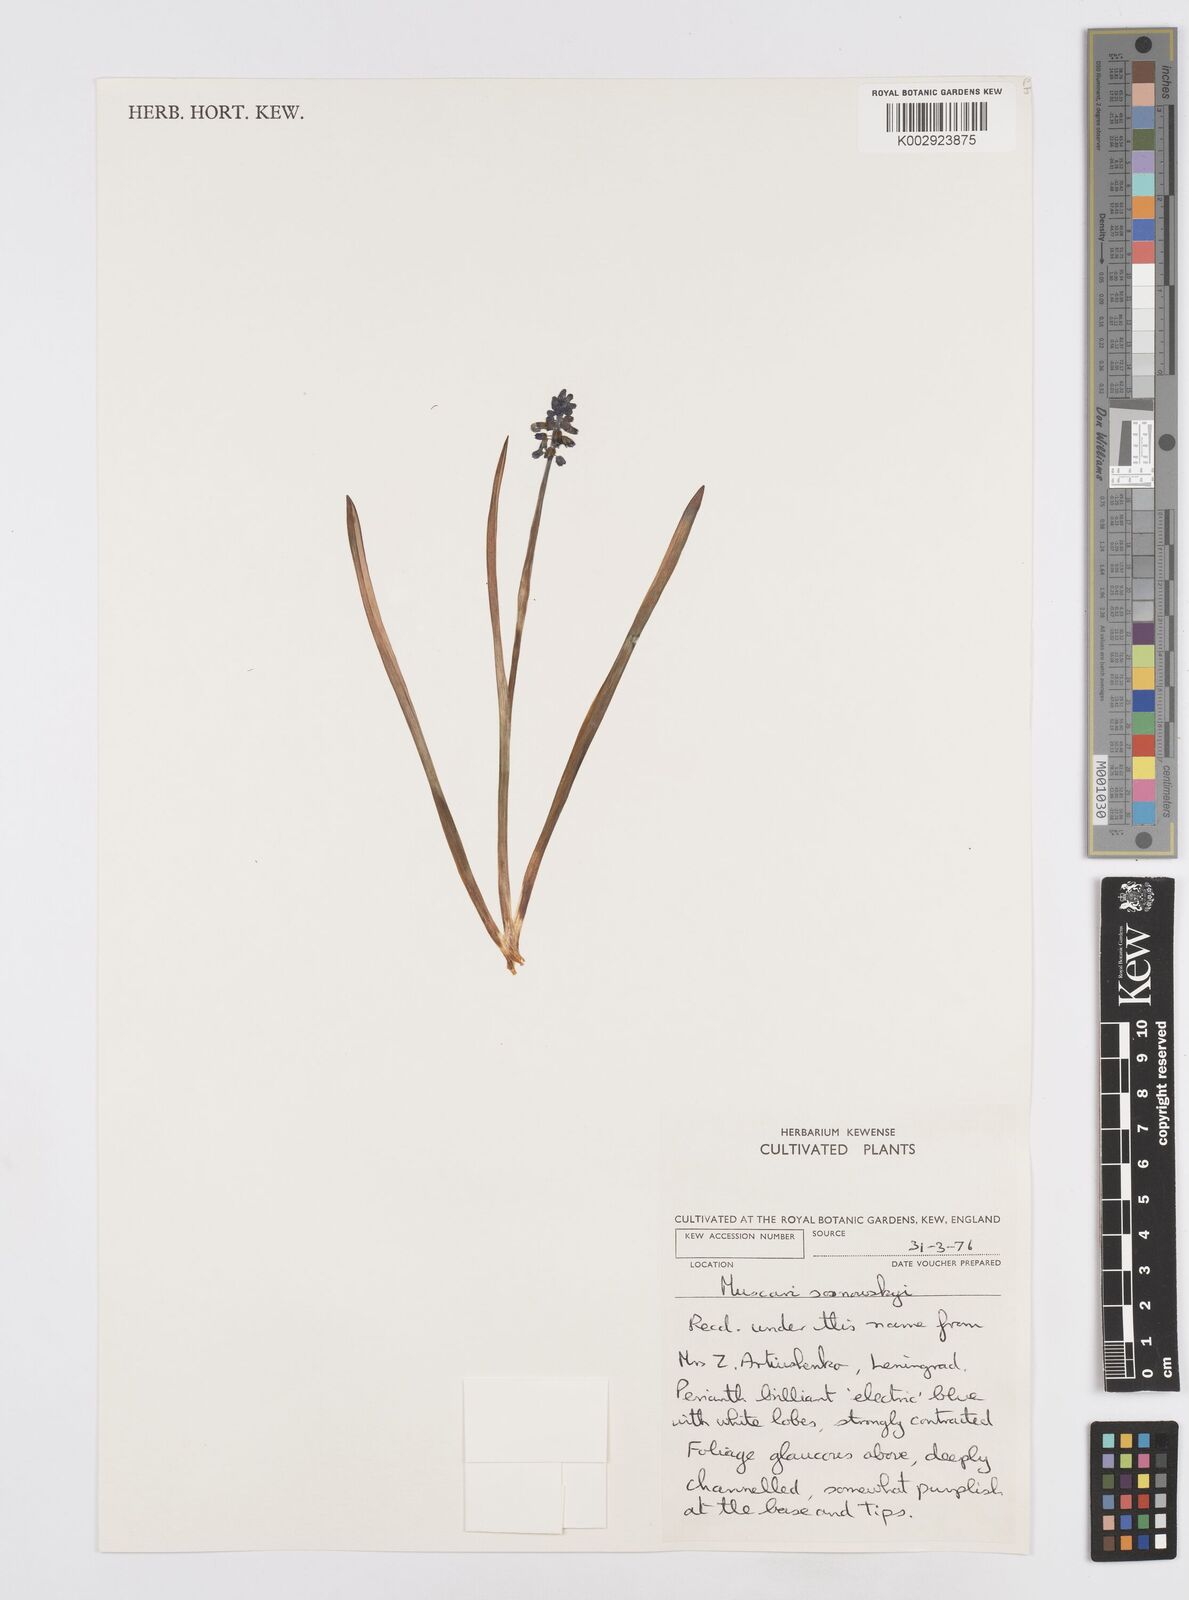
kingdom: Plantae
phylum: Tracheophyta
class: Liliopsida
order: Asparagales
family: Asparagaceae
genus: Muscari
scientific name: Muscari
